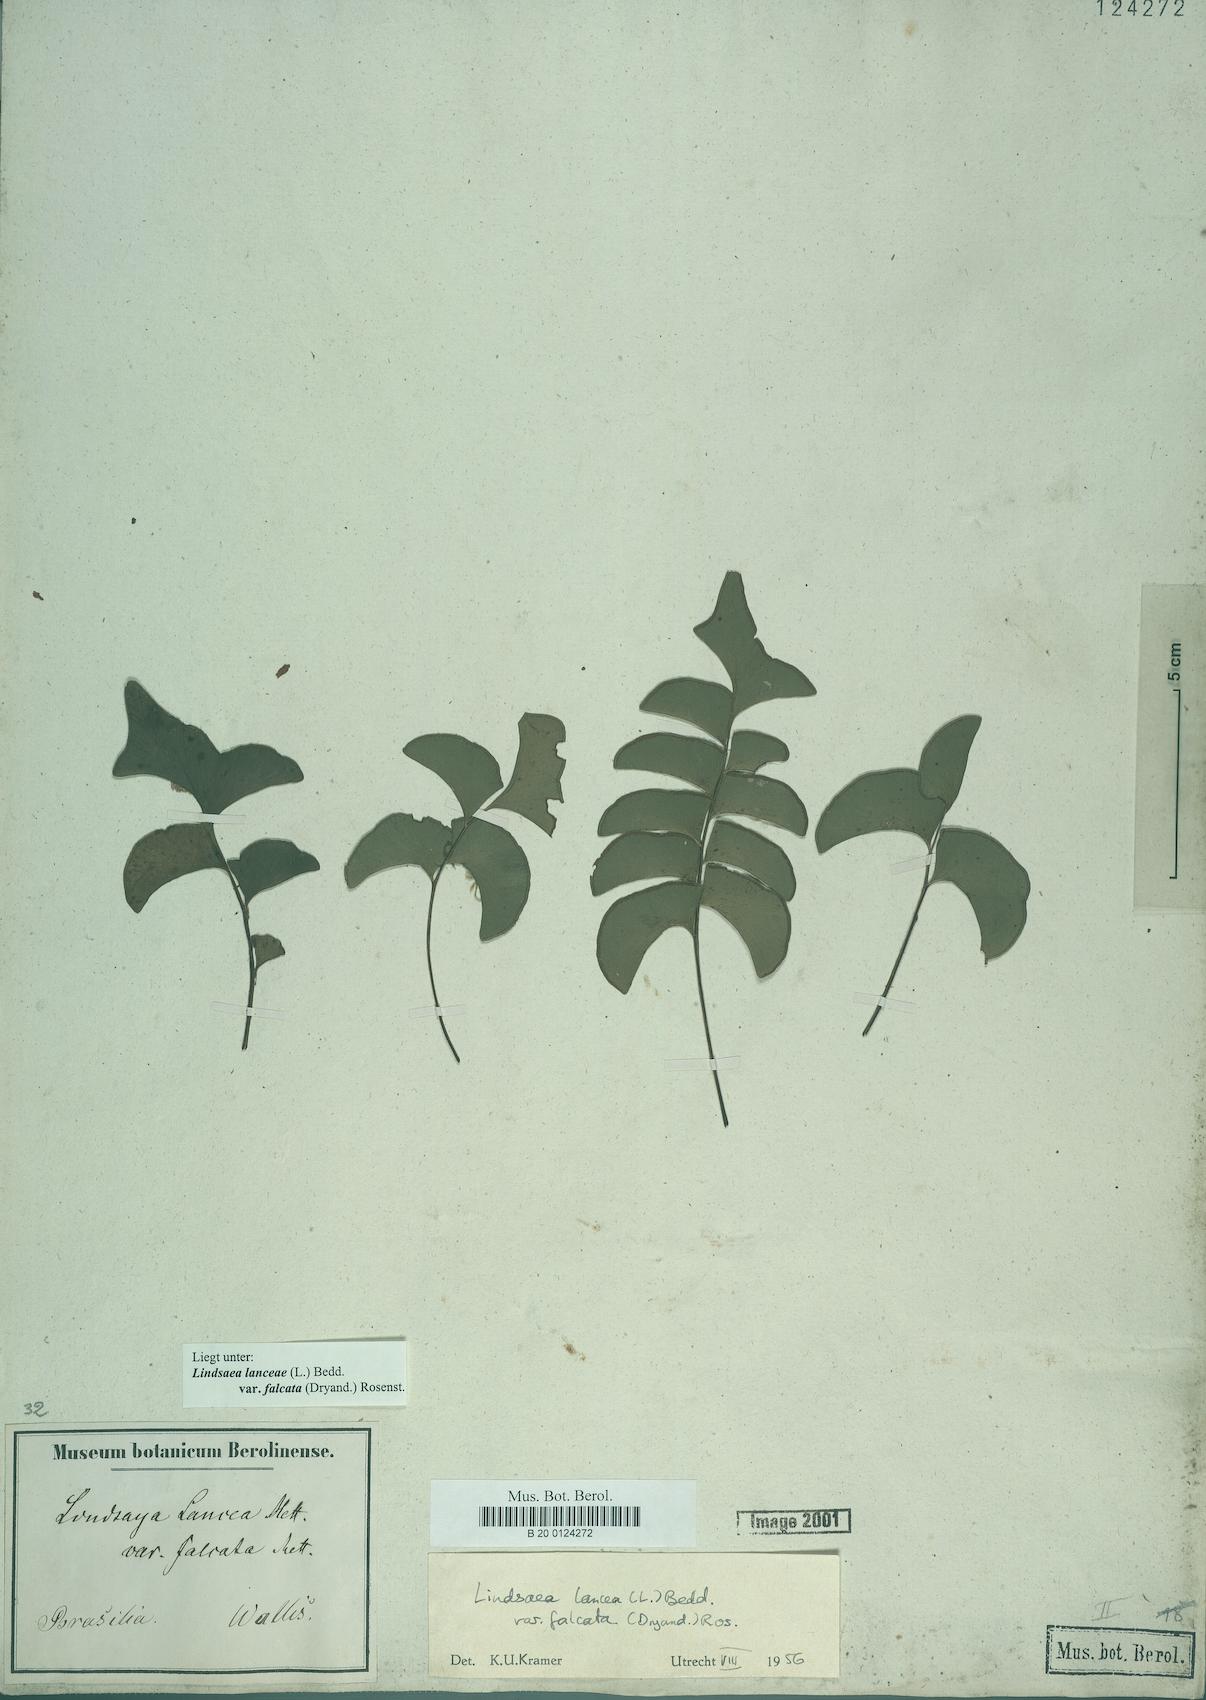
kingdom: Plantae
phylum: Tracheophyta
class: Polypodiopsida
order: Polypodiales
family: Lindsaeaceae
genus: Lindsaea
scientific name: Lindsaea falcata
